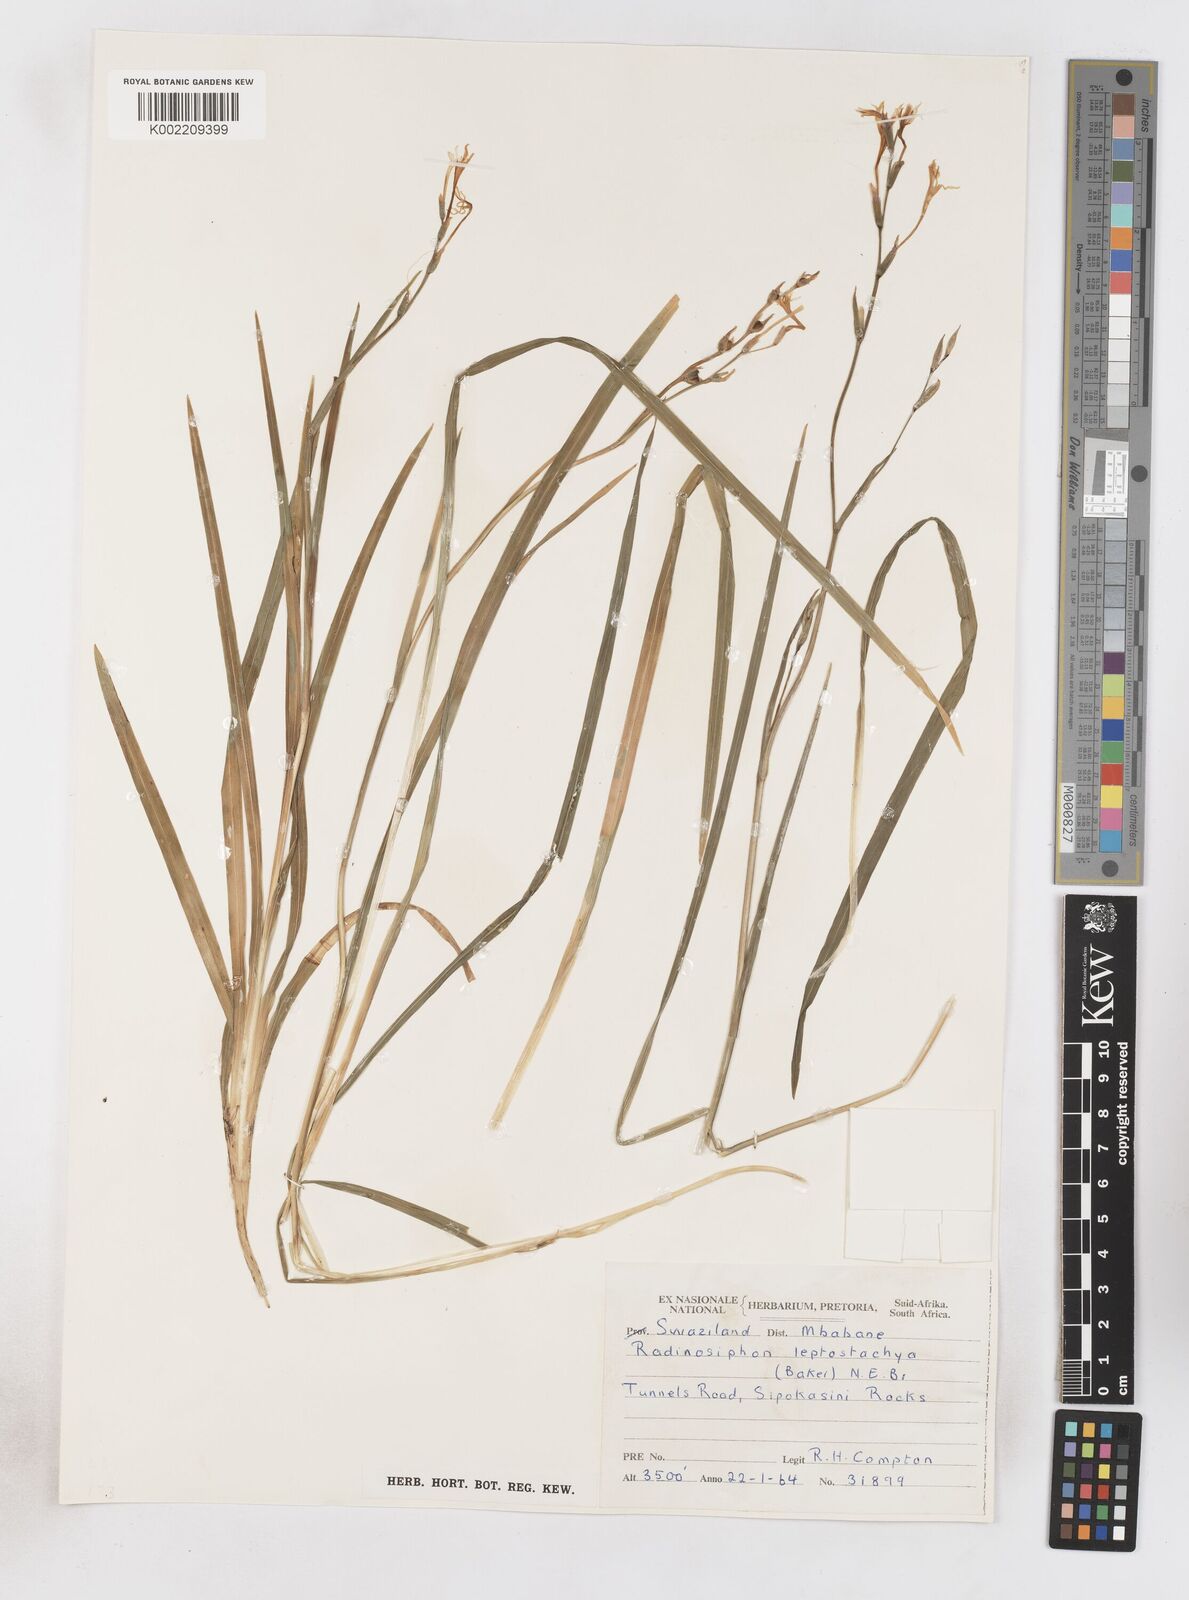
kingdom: Plantae
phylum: Tracheophyta
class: Liliopsida
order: Asparagales
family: Iridaceae
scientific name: Iridaceae
